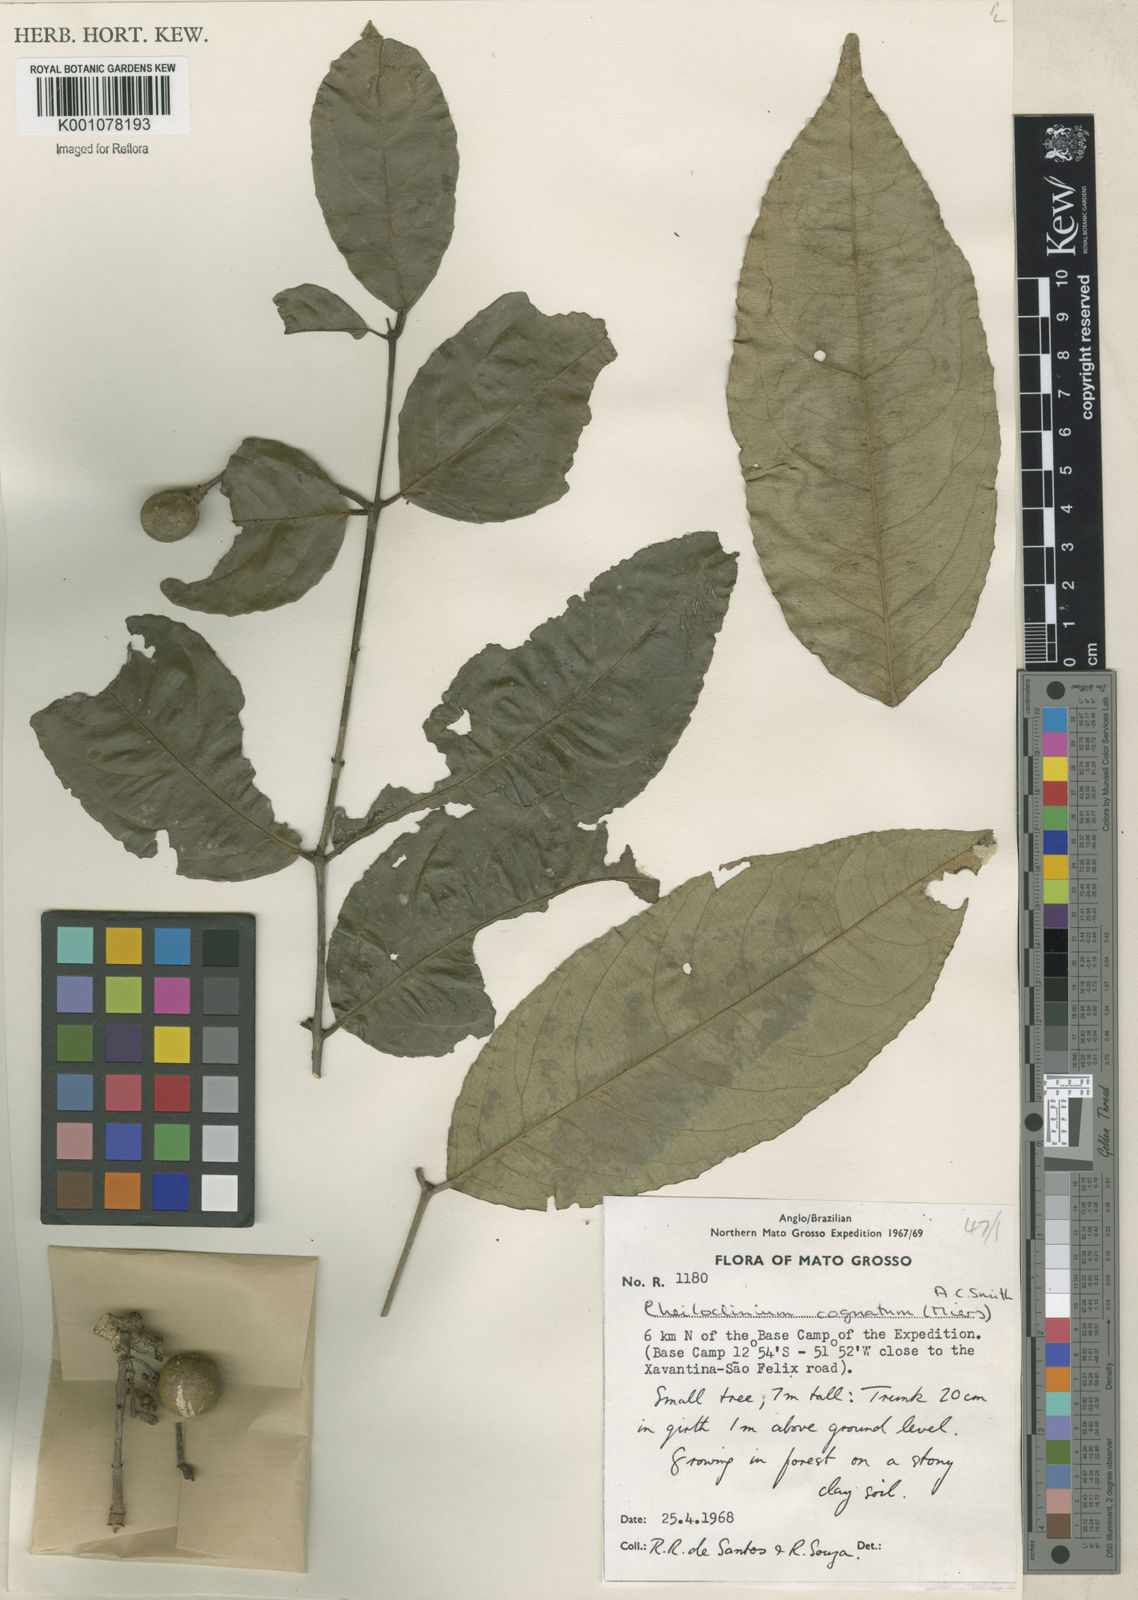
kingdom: Plantae
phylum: Tracheophyta
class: Magnoliopsida
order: Celastrales
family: Celastraceae
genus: Cheiloclinium
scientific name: Cheiloclinium cognatum
